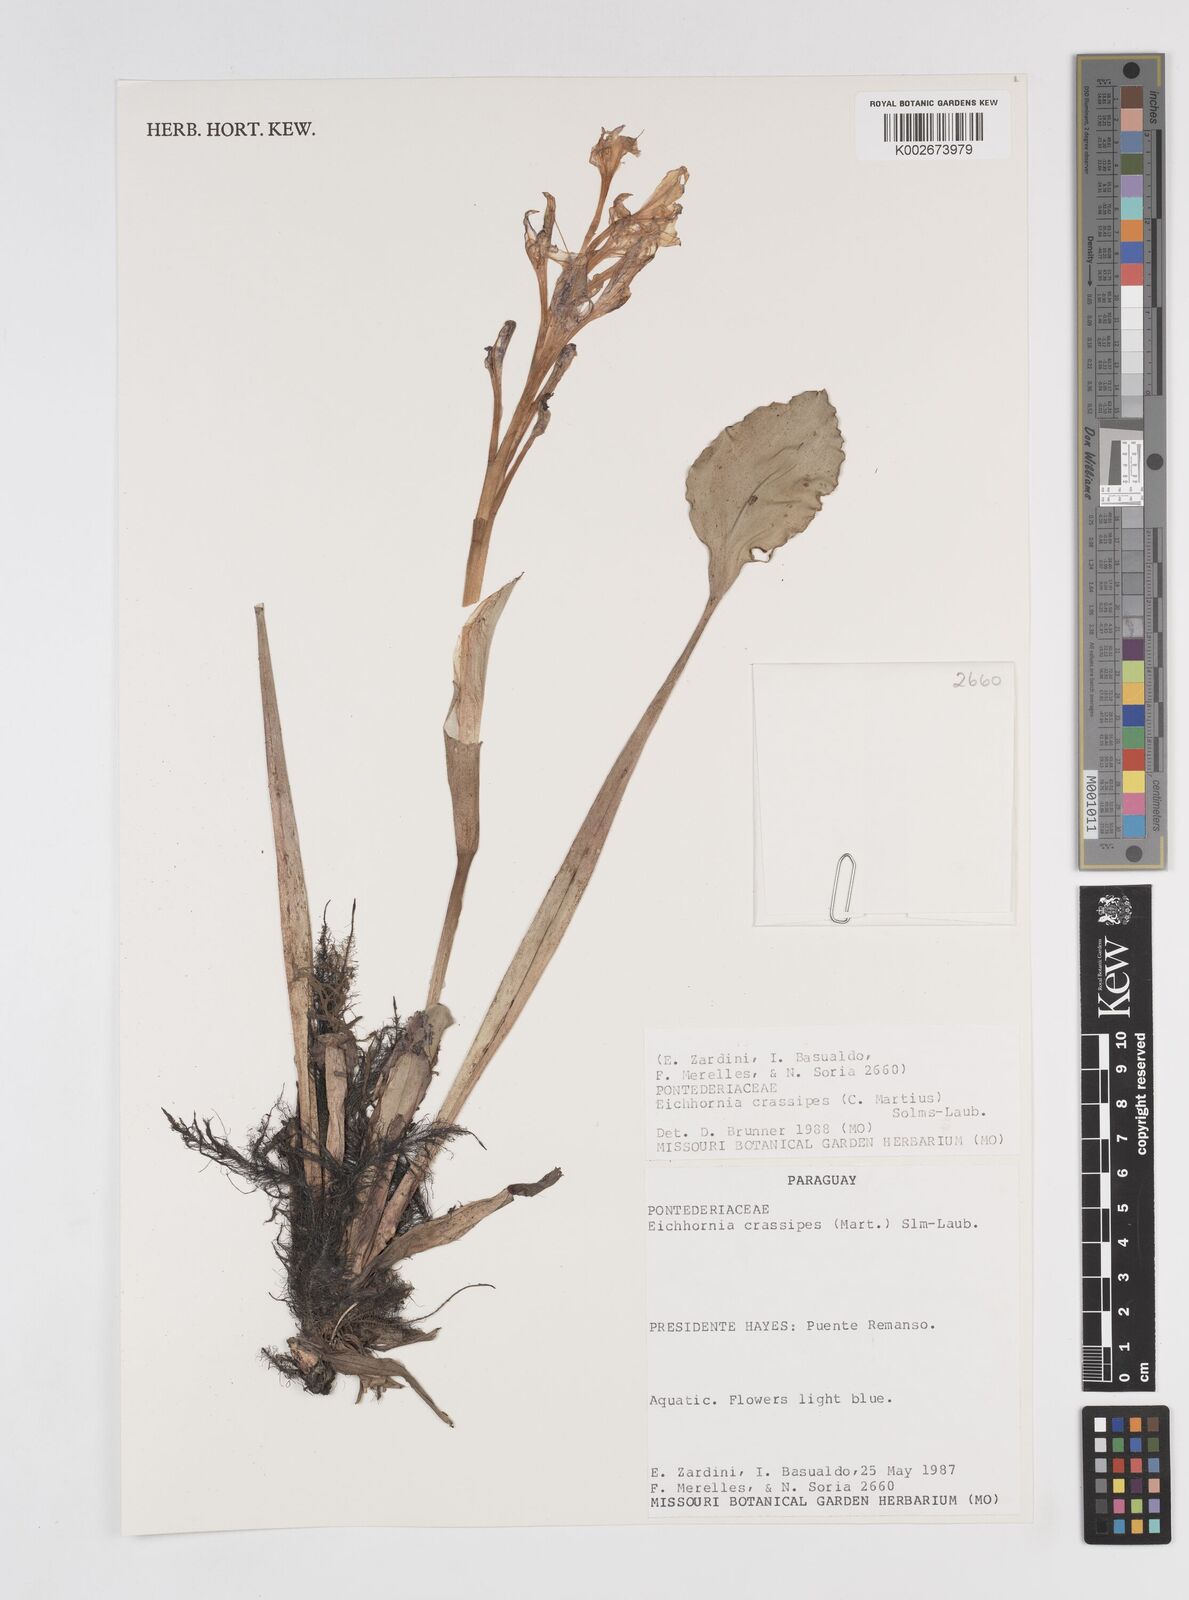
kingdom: Plantae
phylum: Tracheophyta
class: Liliopsida
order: Commelinales
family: Pontederiaceae
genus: Pontederia
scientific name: Pontederia crassipes
